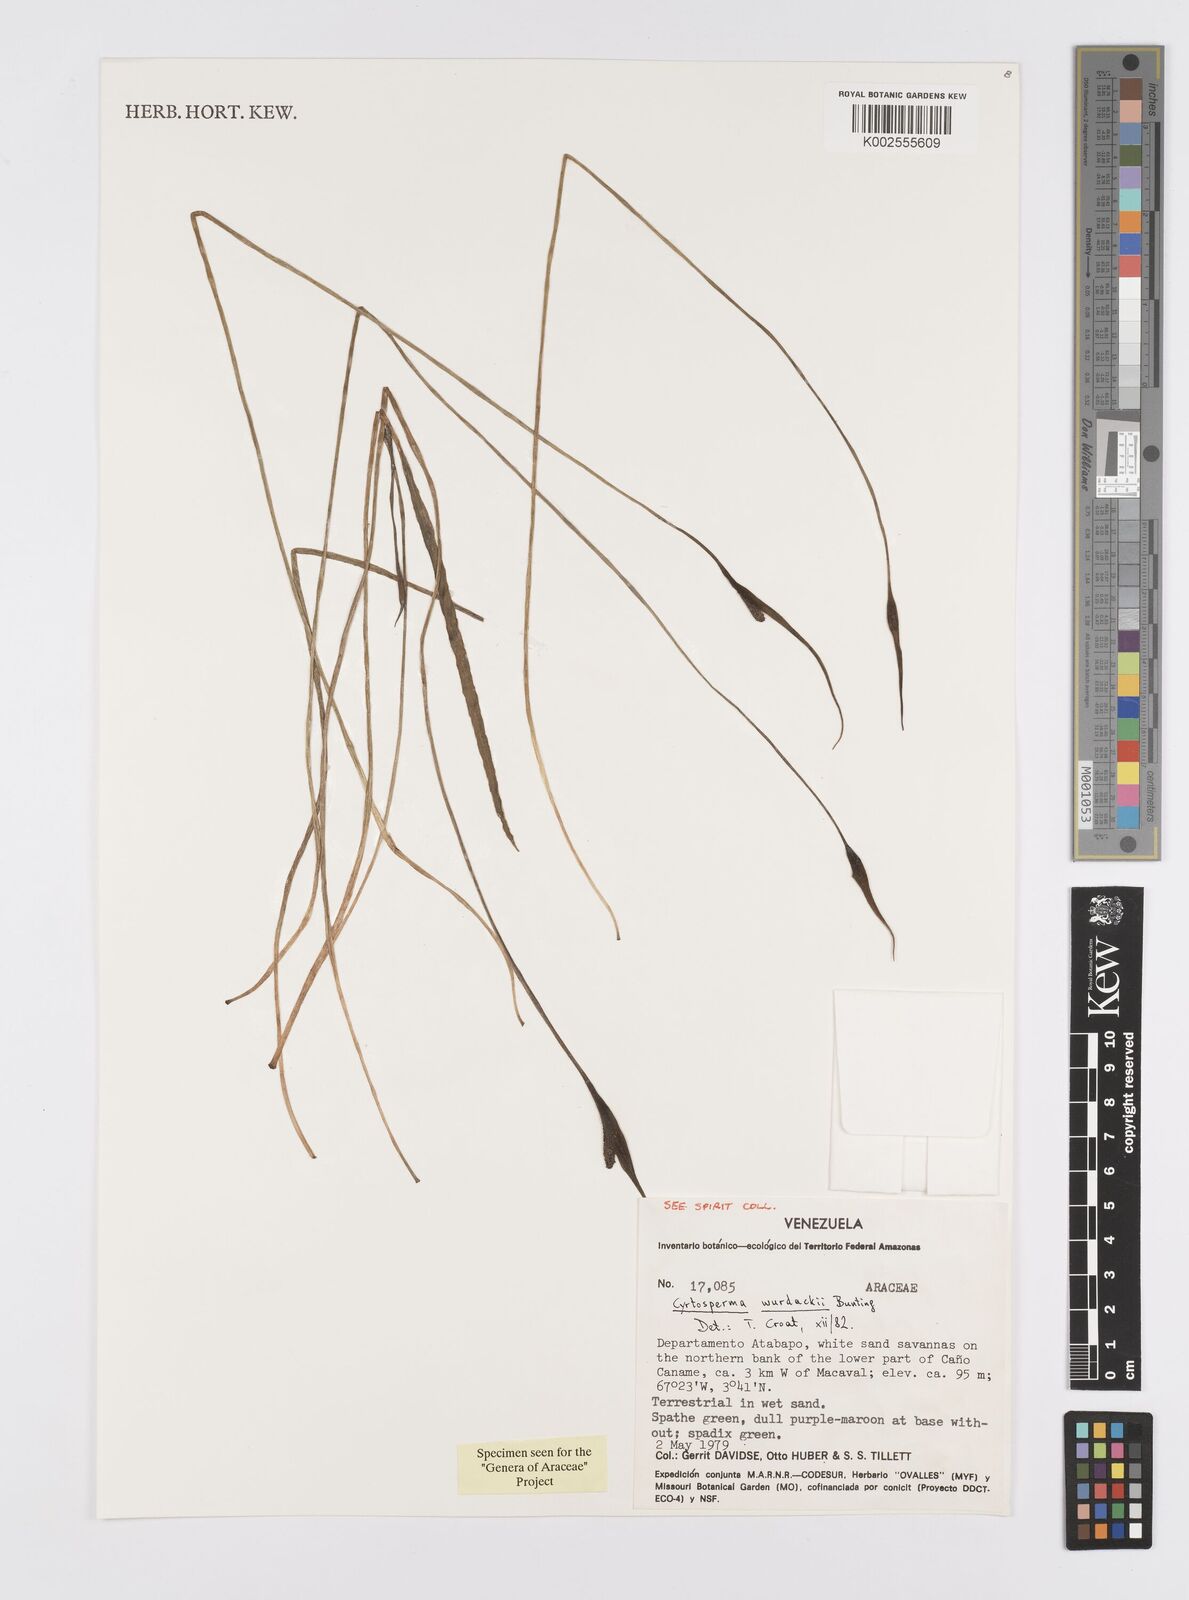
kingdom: Plantae
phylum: Tracheophyta
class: Liliopsida
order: Alismatales
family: Araceae
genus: Urospatha
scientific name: Urospatha wurdackii
